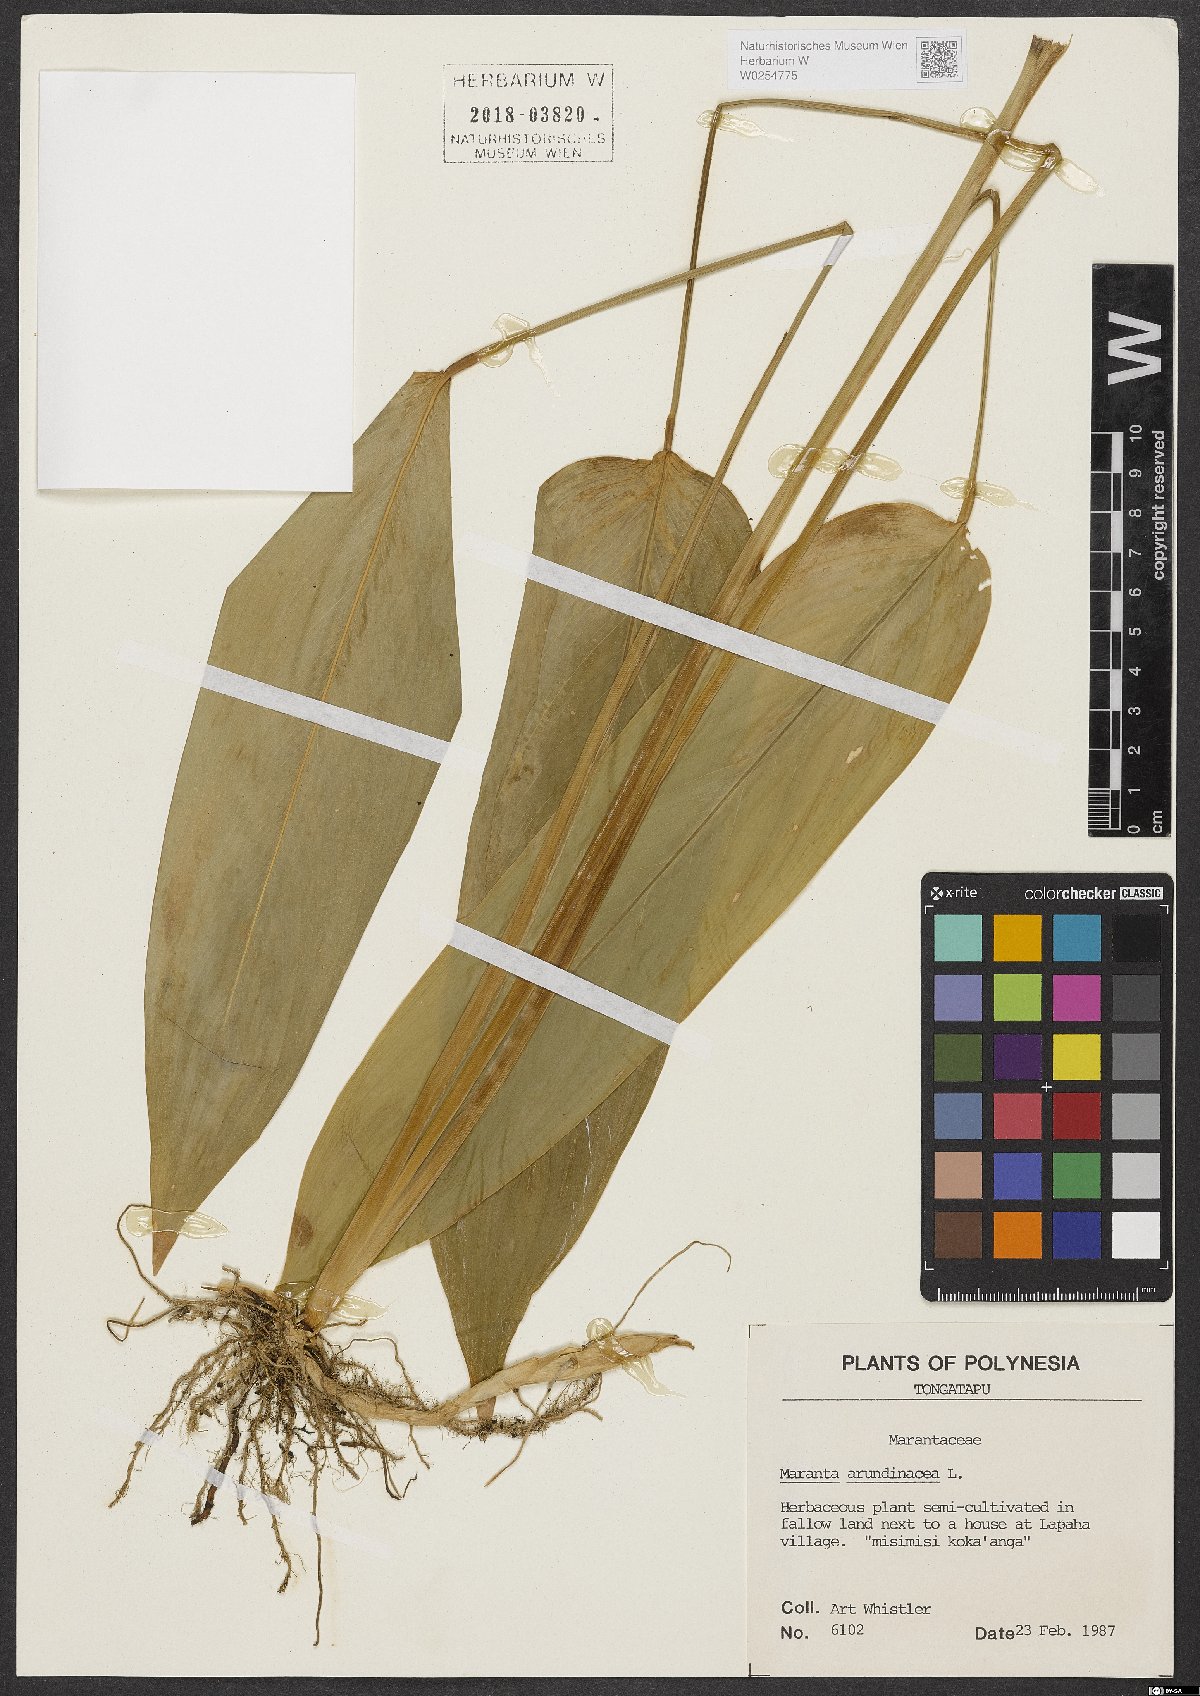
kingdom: Plantae
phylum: Tracheophyta
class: Liliopsida
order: Zingiberales
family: Marantaceae
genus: Maranta
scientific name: Maranta arundinacea
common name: Arrowroot
